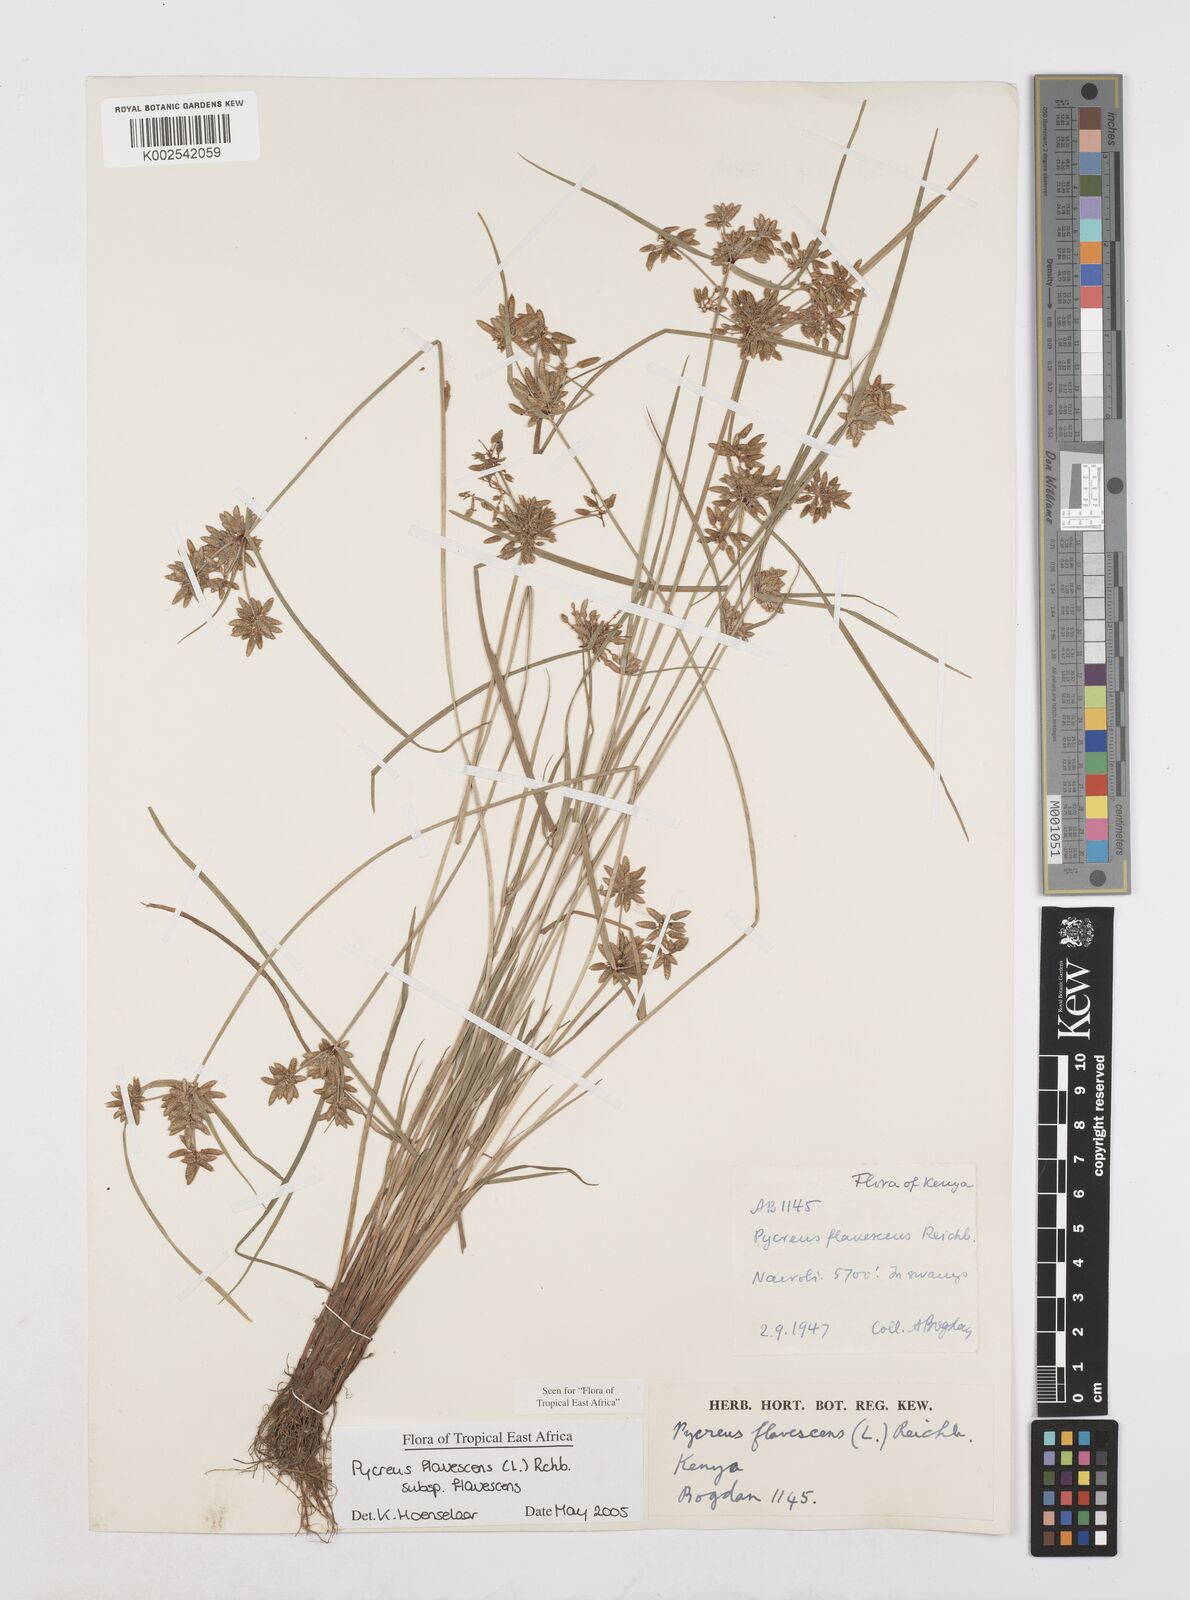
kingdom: Plantae
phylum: Tracheophyta
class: Liliopsida
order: Poales
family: Cyperaceae
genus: Cyperus
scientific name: Cyperus flavescens
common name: Yellow galingale
